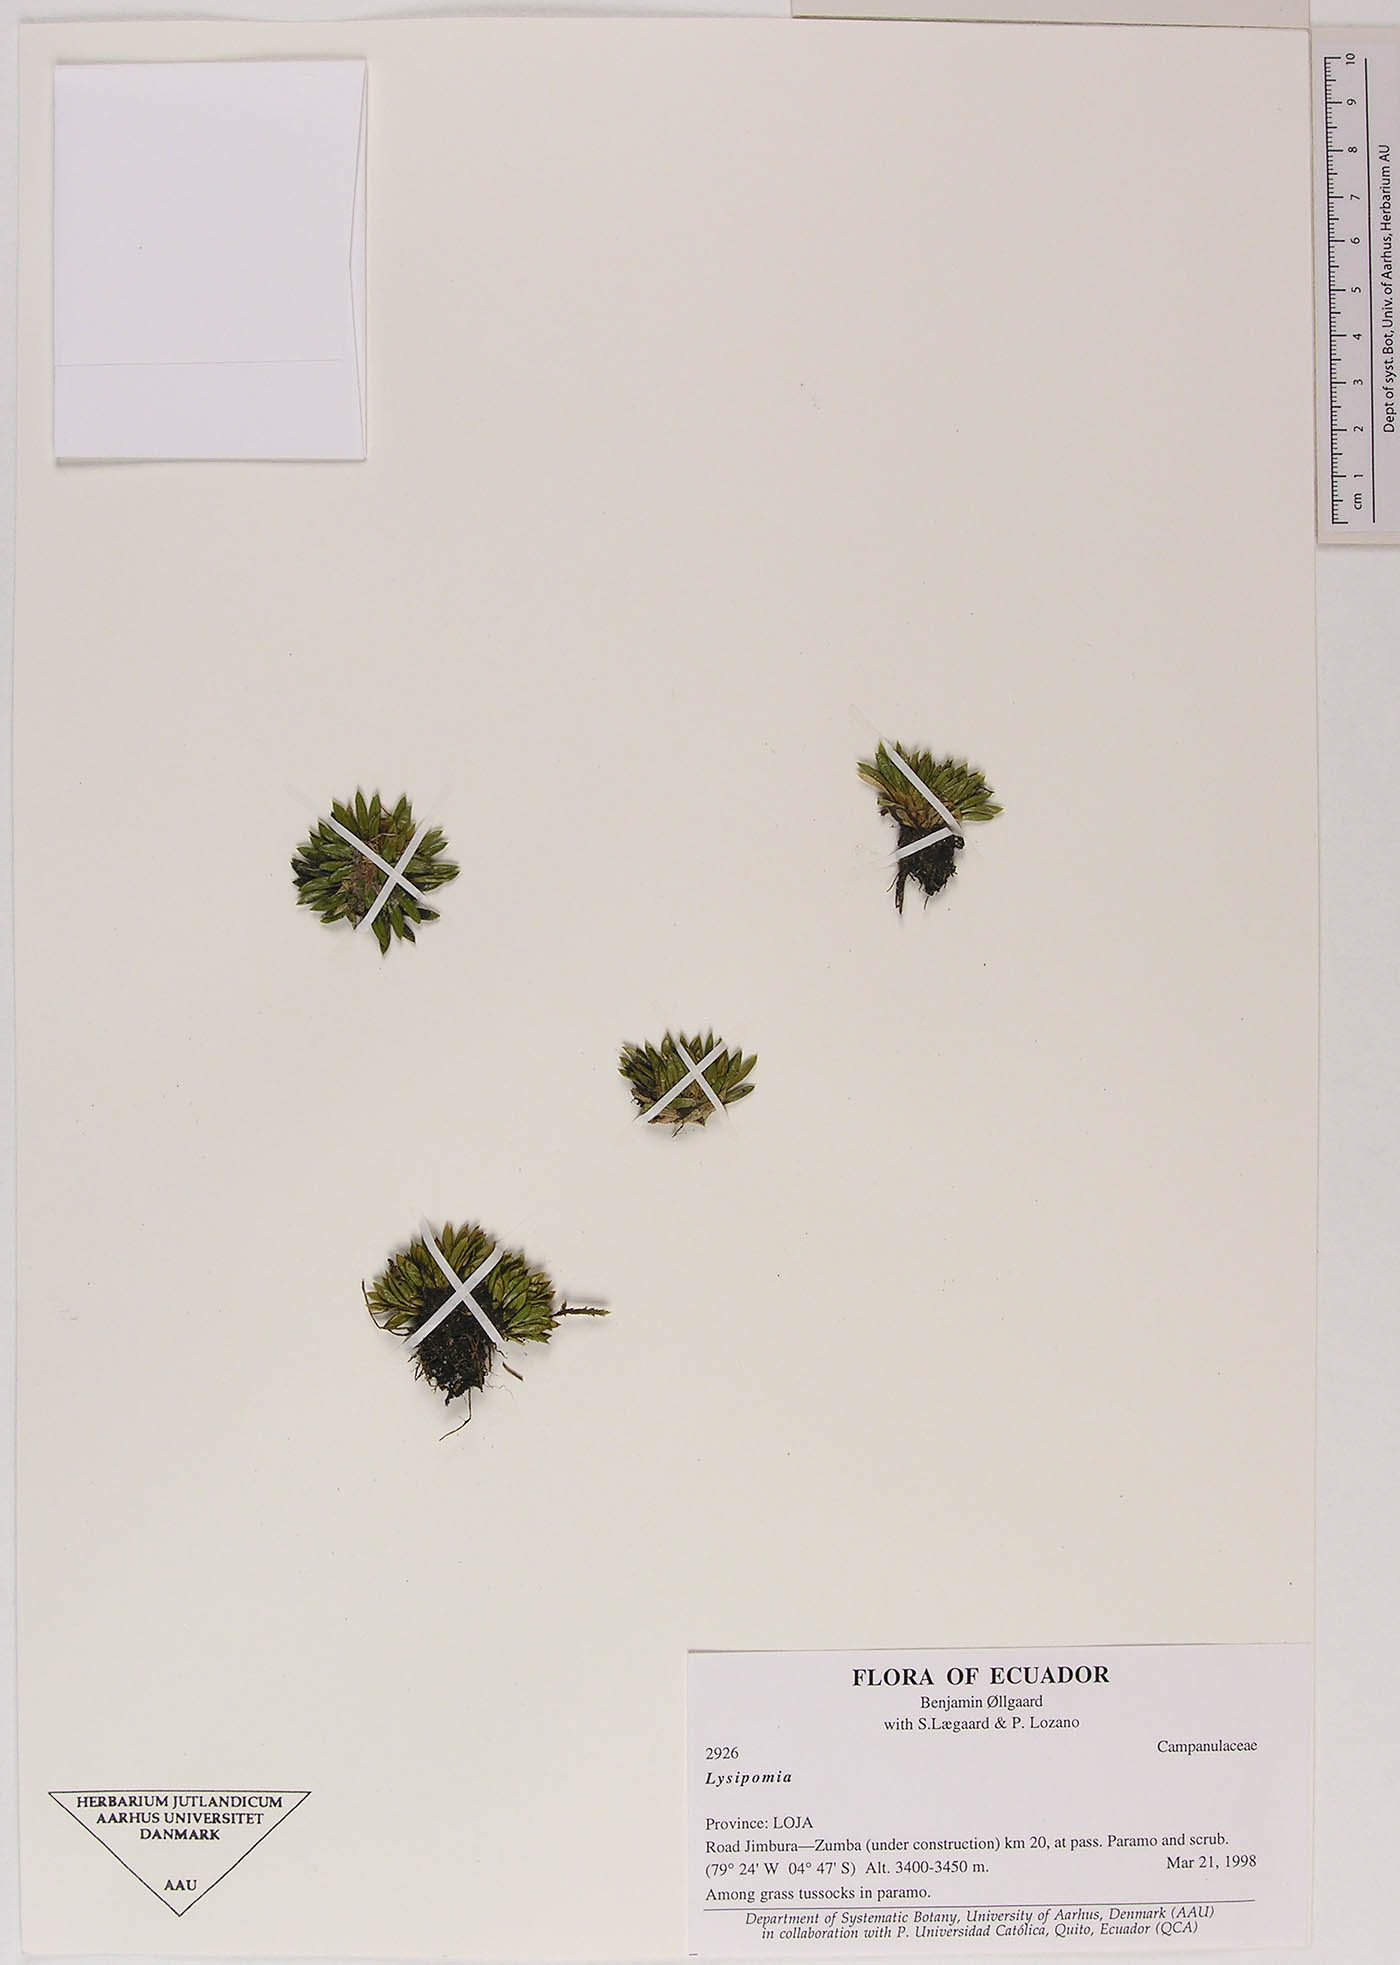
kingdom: Plantae
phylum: Tracheophyta
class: Magnoliopsida
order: Asterales
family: Campanulaceae
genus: Lysipomia
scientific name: Lysipomia
